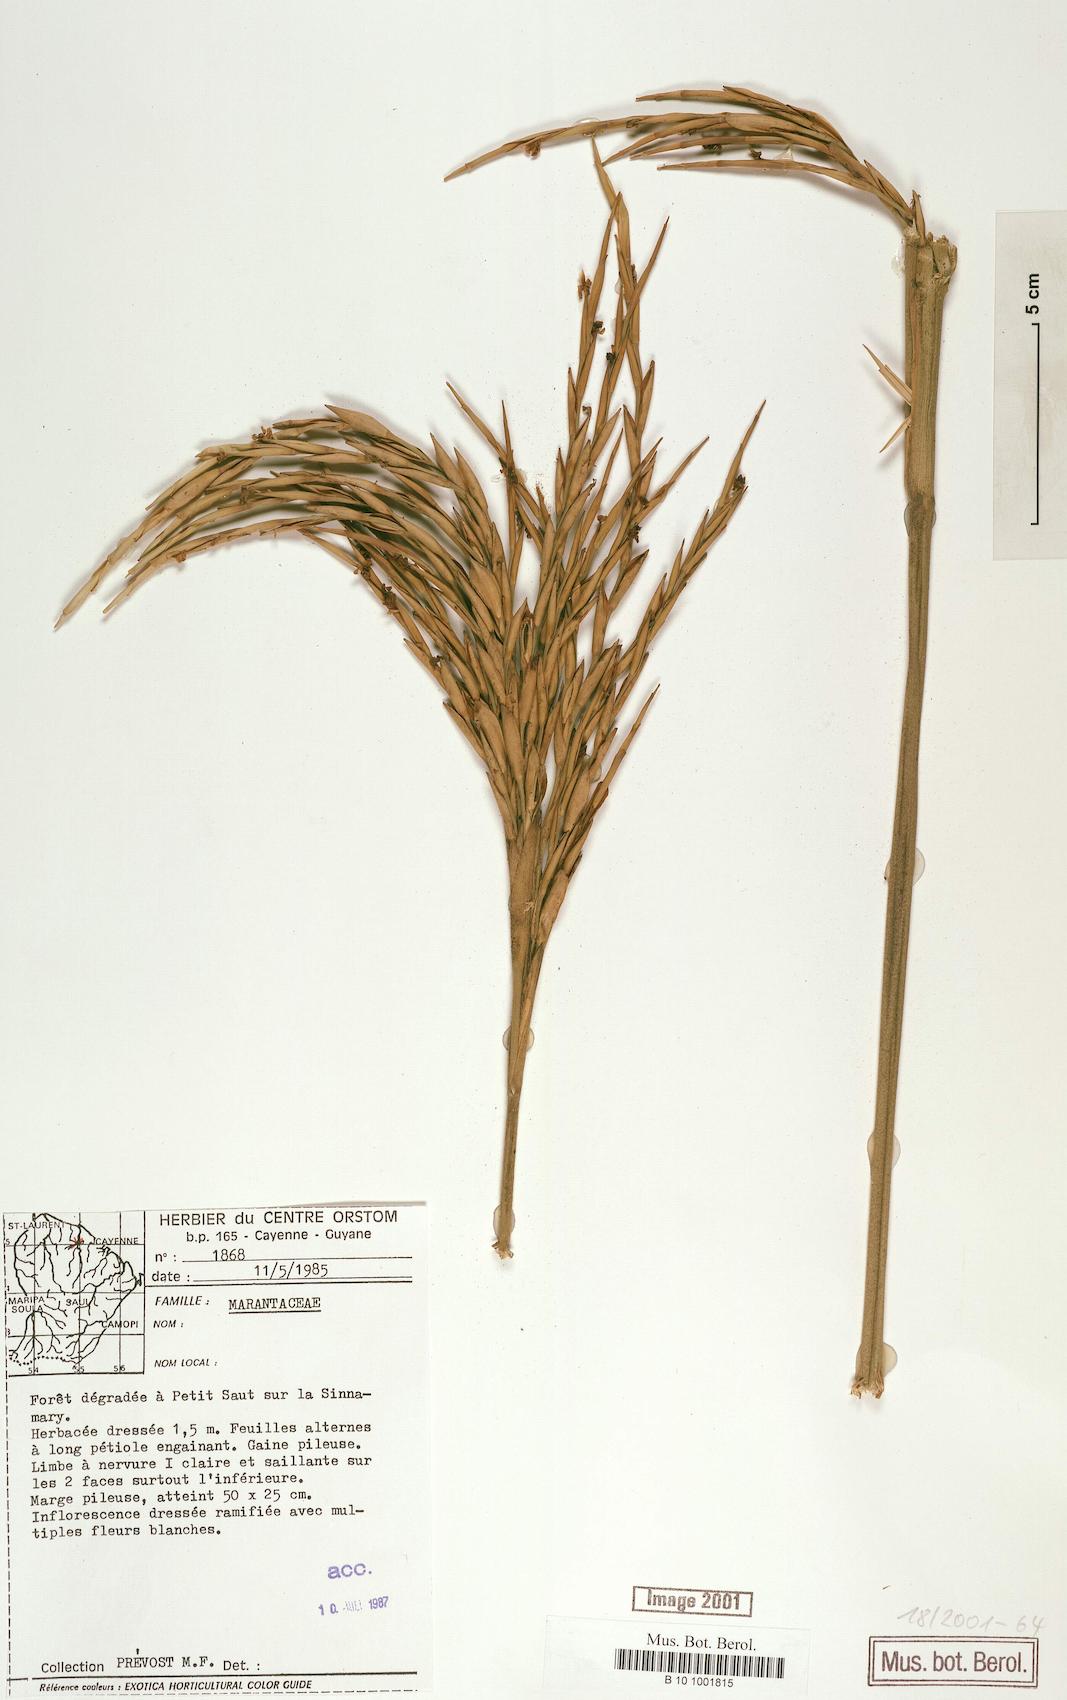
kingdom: Plantae
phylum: Tracheophyta
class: Liliopsida
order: Zingiberales
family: Marantaceae
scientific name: Marantaceae
